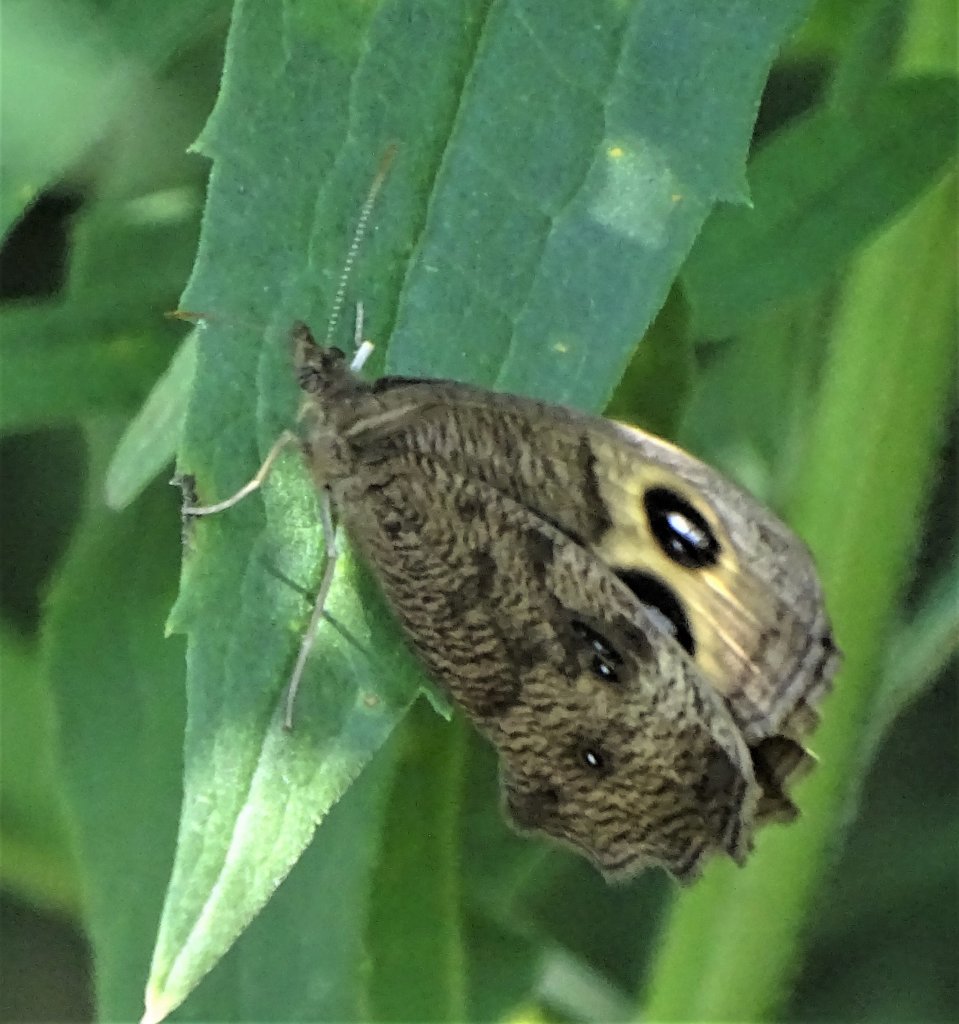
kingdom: Animalia
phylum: Arthropoda
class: Insecta
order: Lepidoptera
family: Nymphalidae
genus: Cercyonis
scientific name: Cercyonis pegala
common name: Common Wood-Nymph
